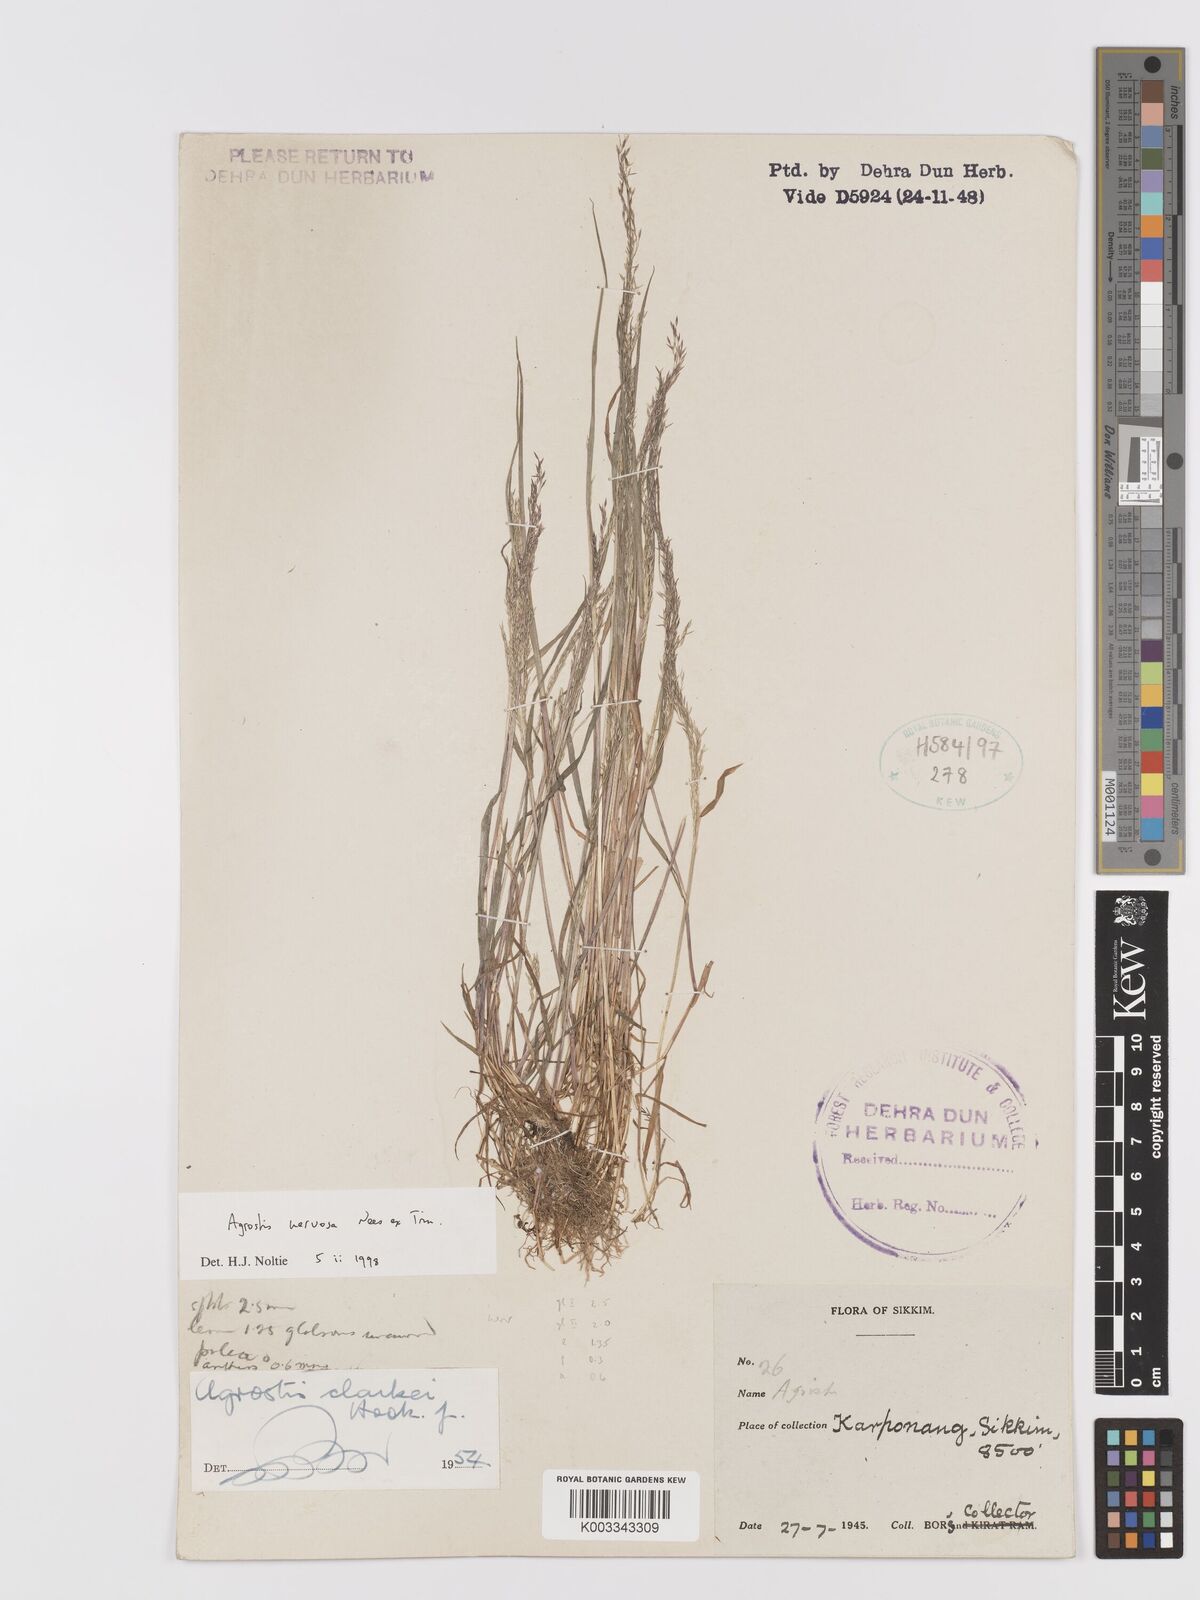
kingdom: Plantae
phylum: Tracheophyta
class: Liliopsida
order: Poales
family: Poaceae
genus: Agrostis
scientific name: Agrostis nervosa
